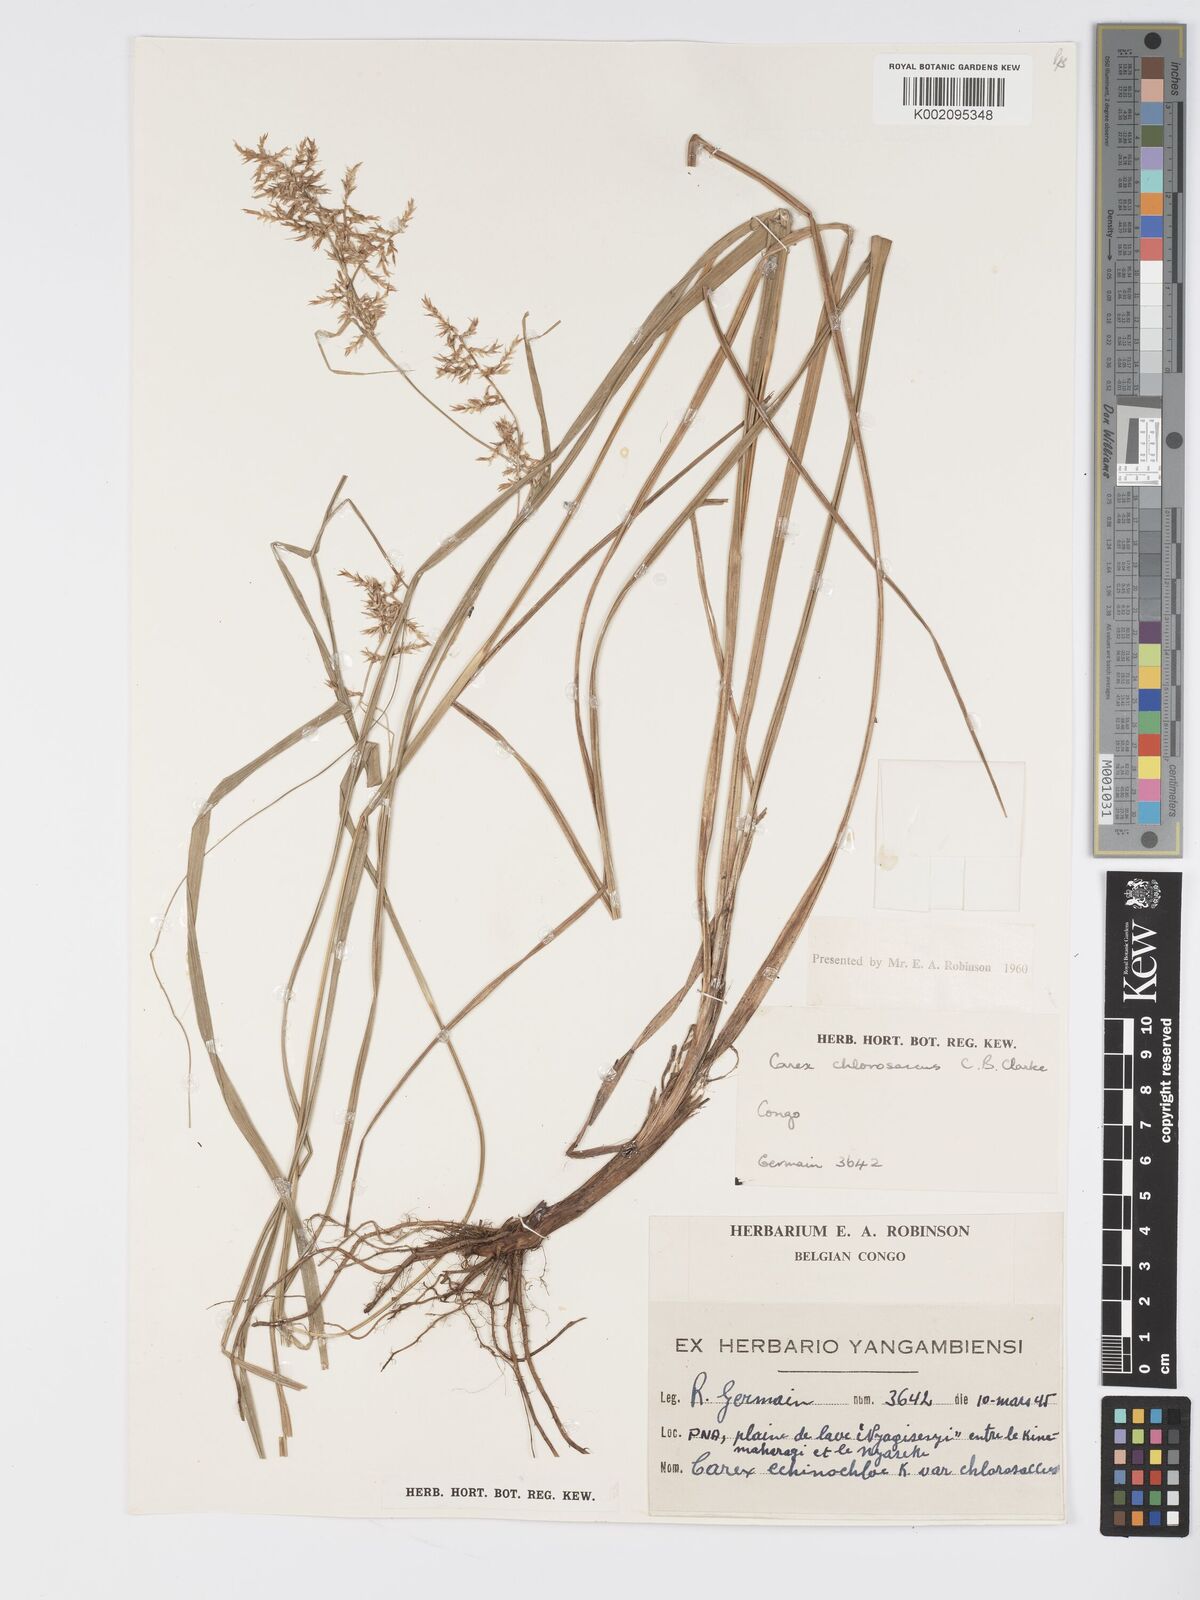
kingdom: Plantae
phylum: Tracheophyta
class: Liliopsida
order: Poales
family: Cyperaceae
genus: Carex
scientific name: Carex chlorosaccus
